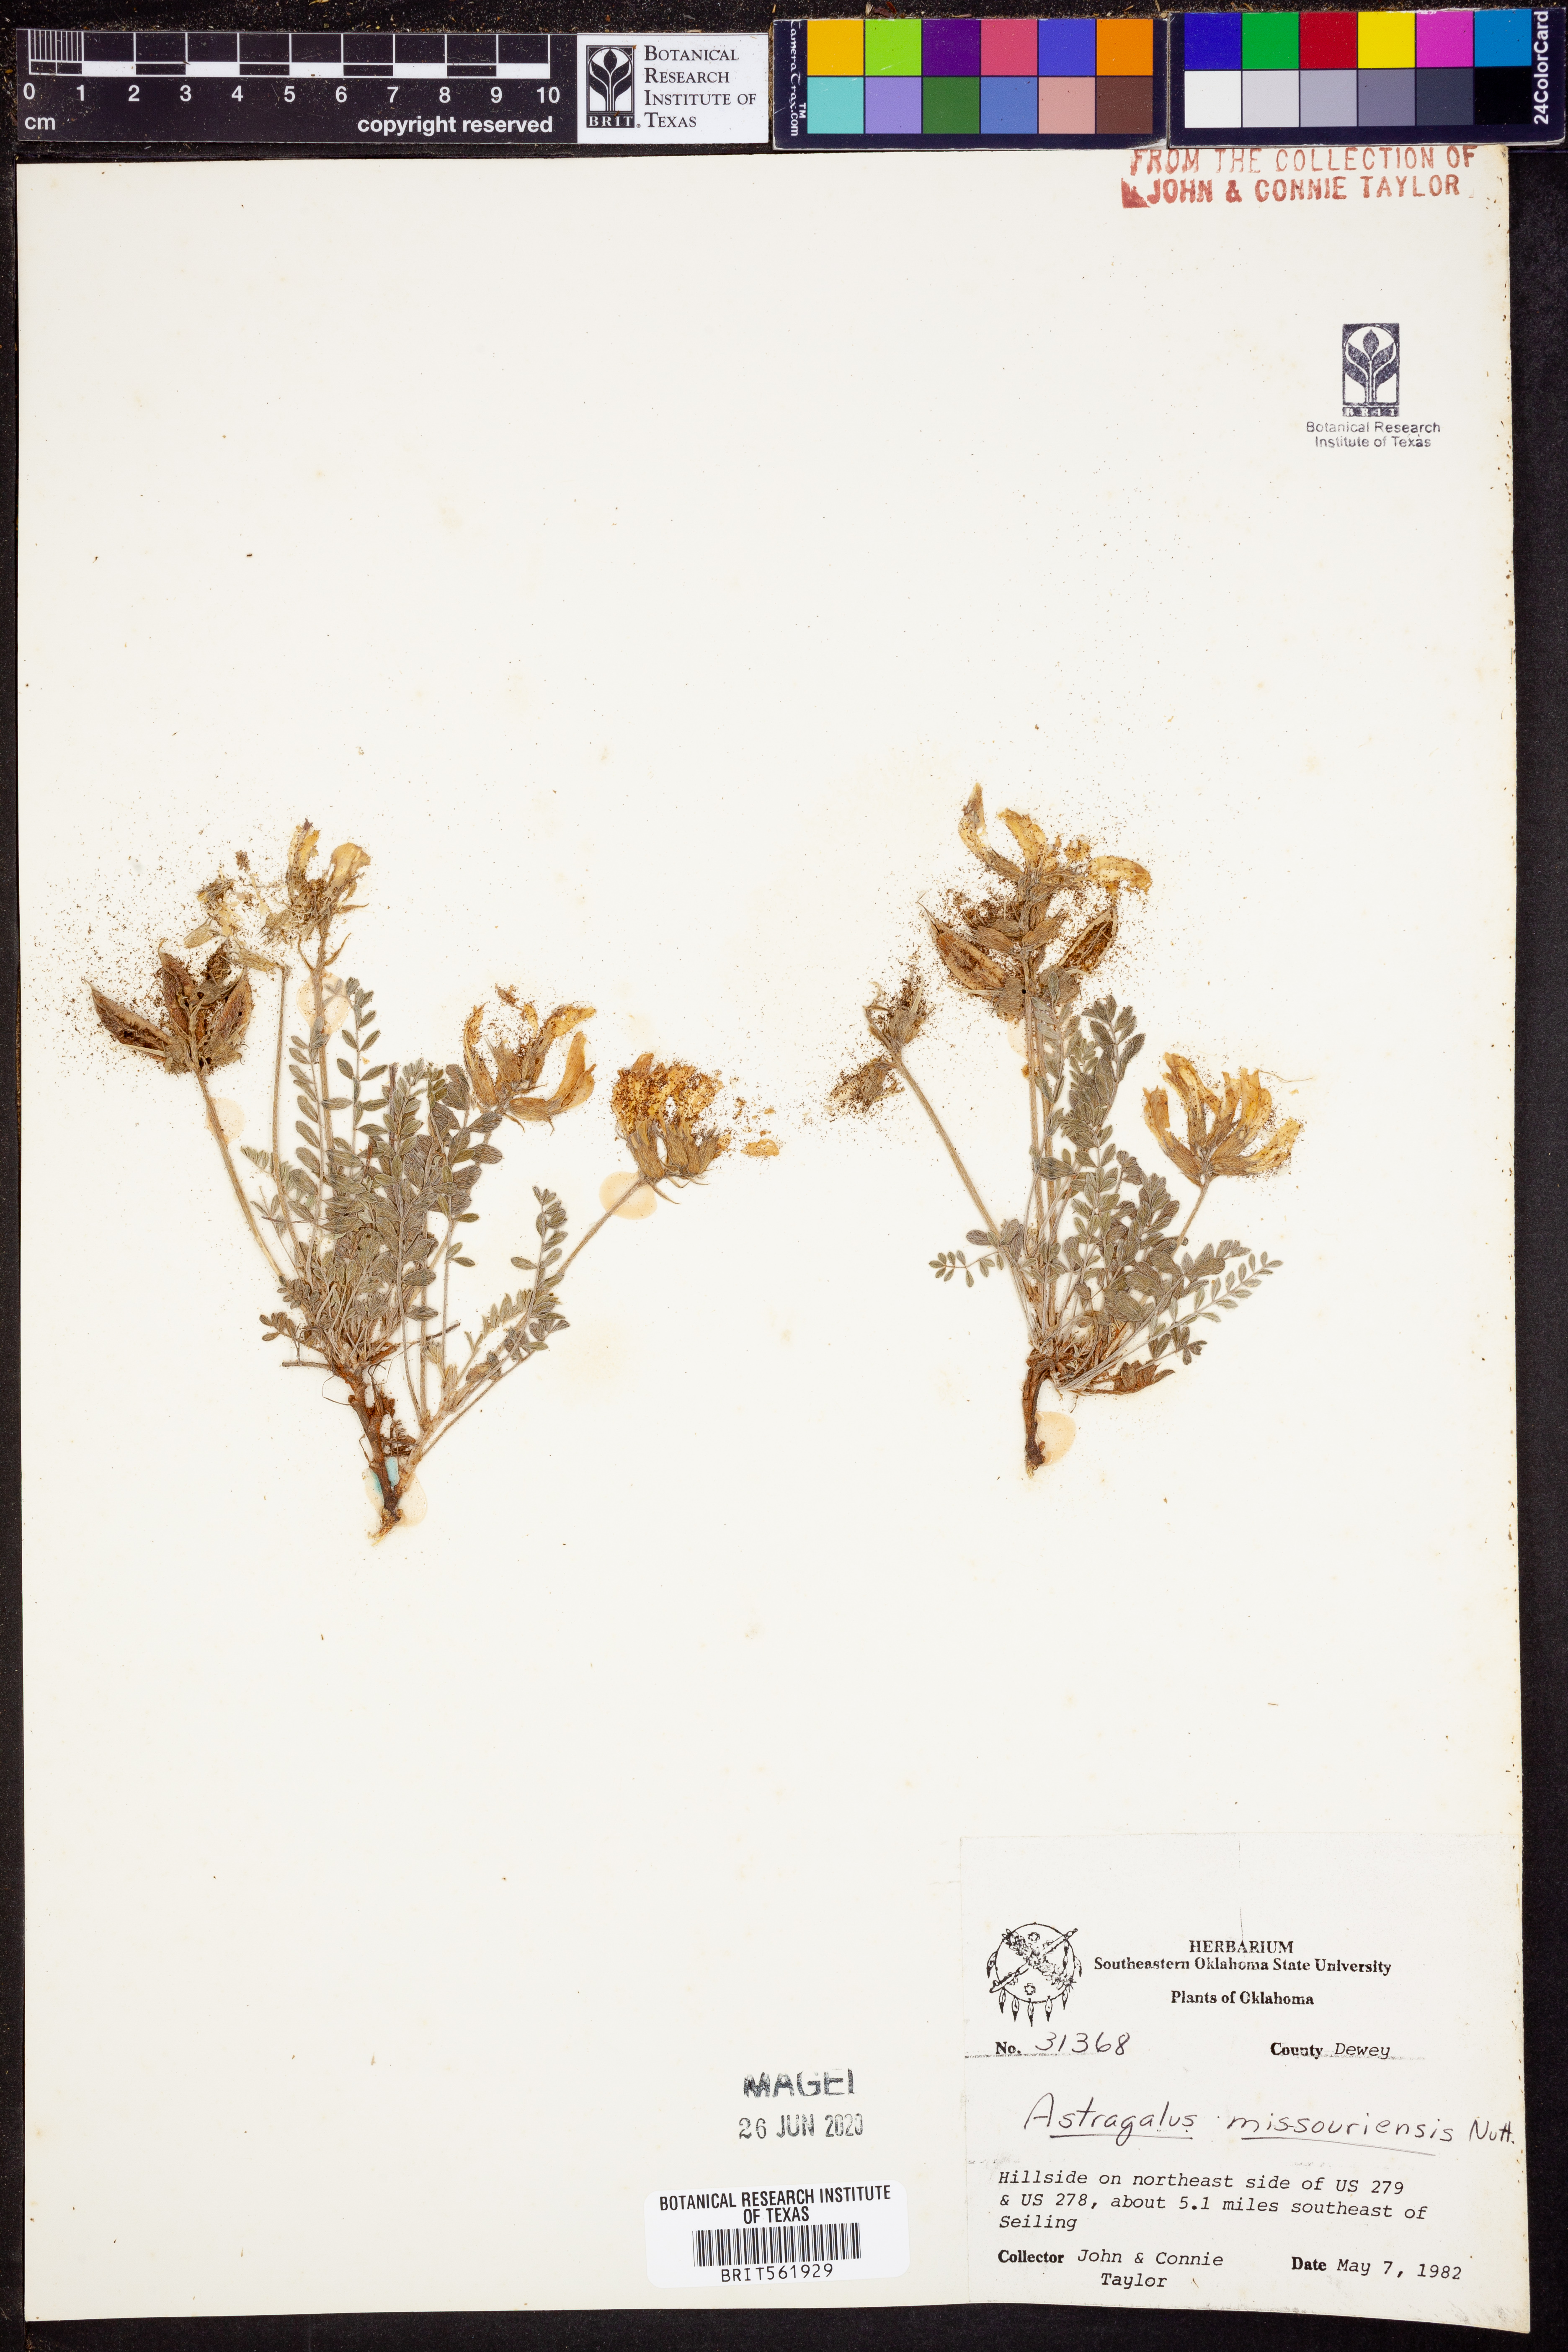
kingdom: Plantae
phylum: Tracheophyta
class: Magnoliopsida
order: Fabales
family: Fabaceae
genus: Astragalus
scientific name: Astragalus missouriensis
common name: Missouri milk-vetch
